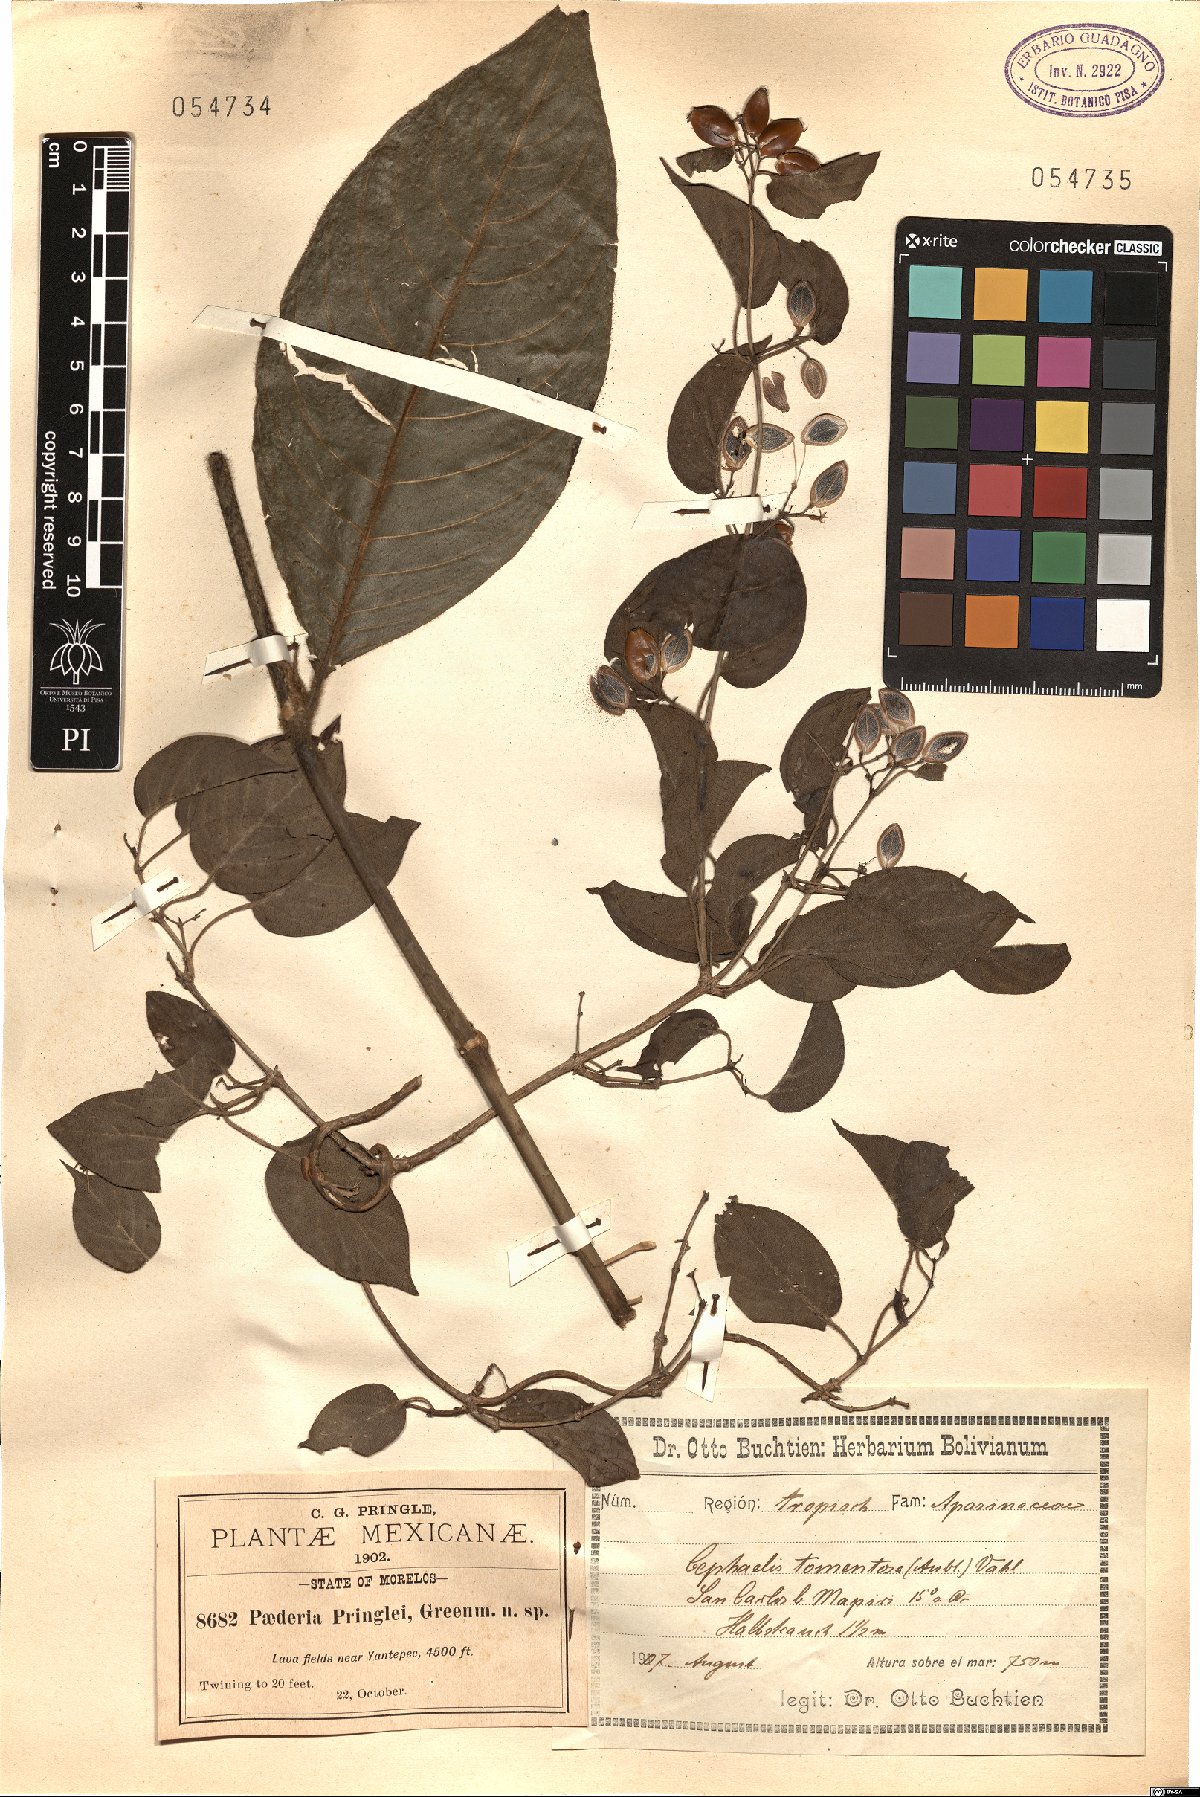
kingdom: Plantae
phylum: Tracheophyta
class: Magnoliopsida
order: Gentianales
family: Rubiaceae
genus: Paederia
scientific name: Paederia ciliata
